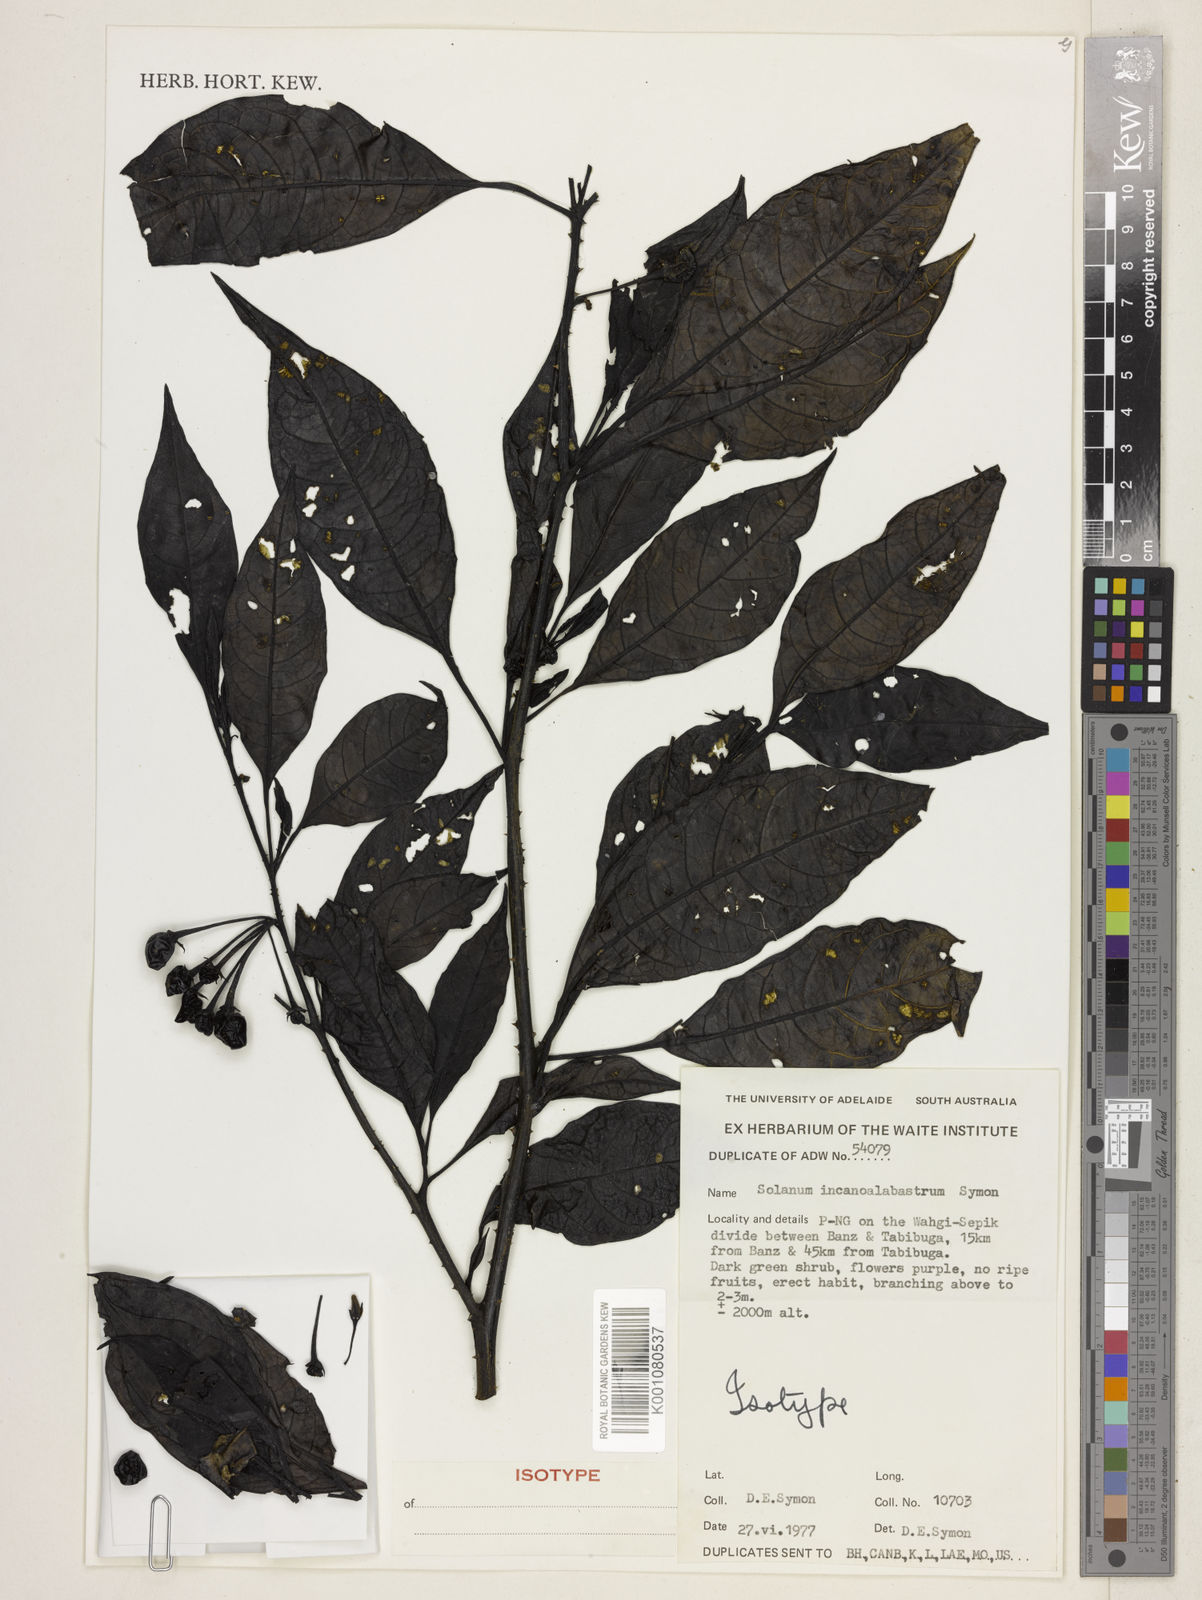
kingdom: Plantae
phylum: Tracheophyta
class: Magnoliopsida
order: Solanales
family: Solanaceae
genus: Solanum
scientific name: Solanum incanoalabastrum
